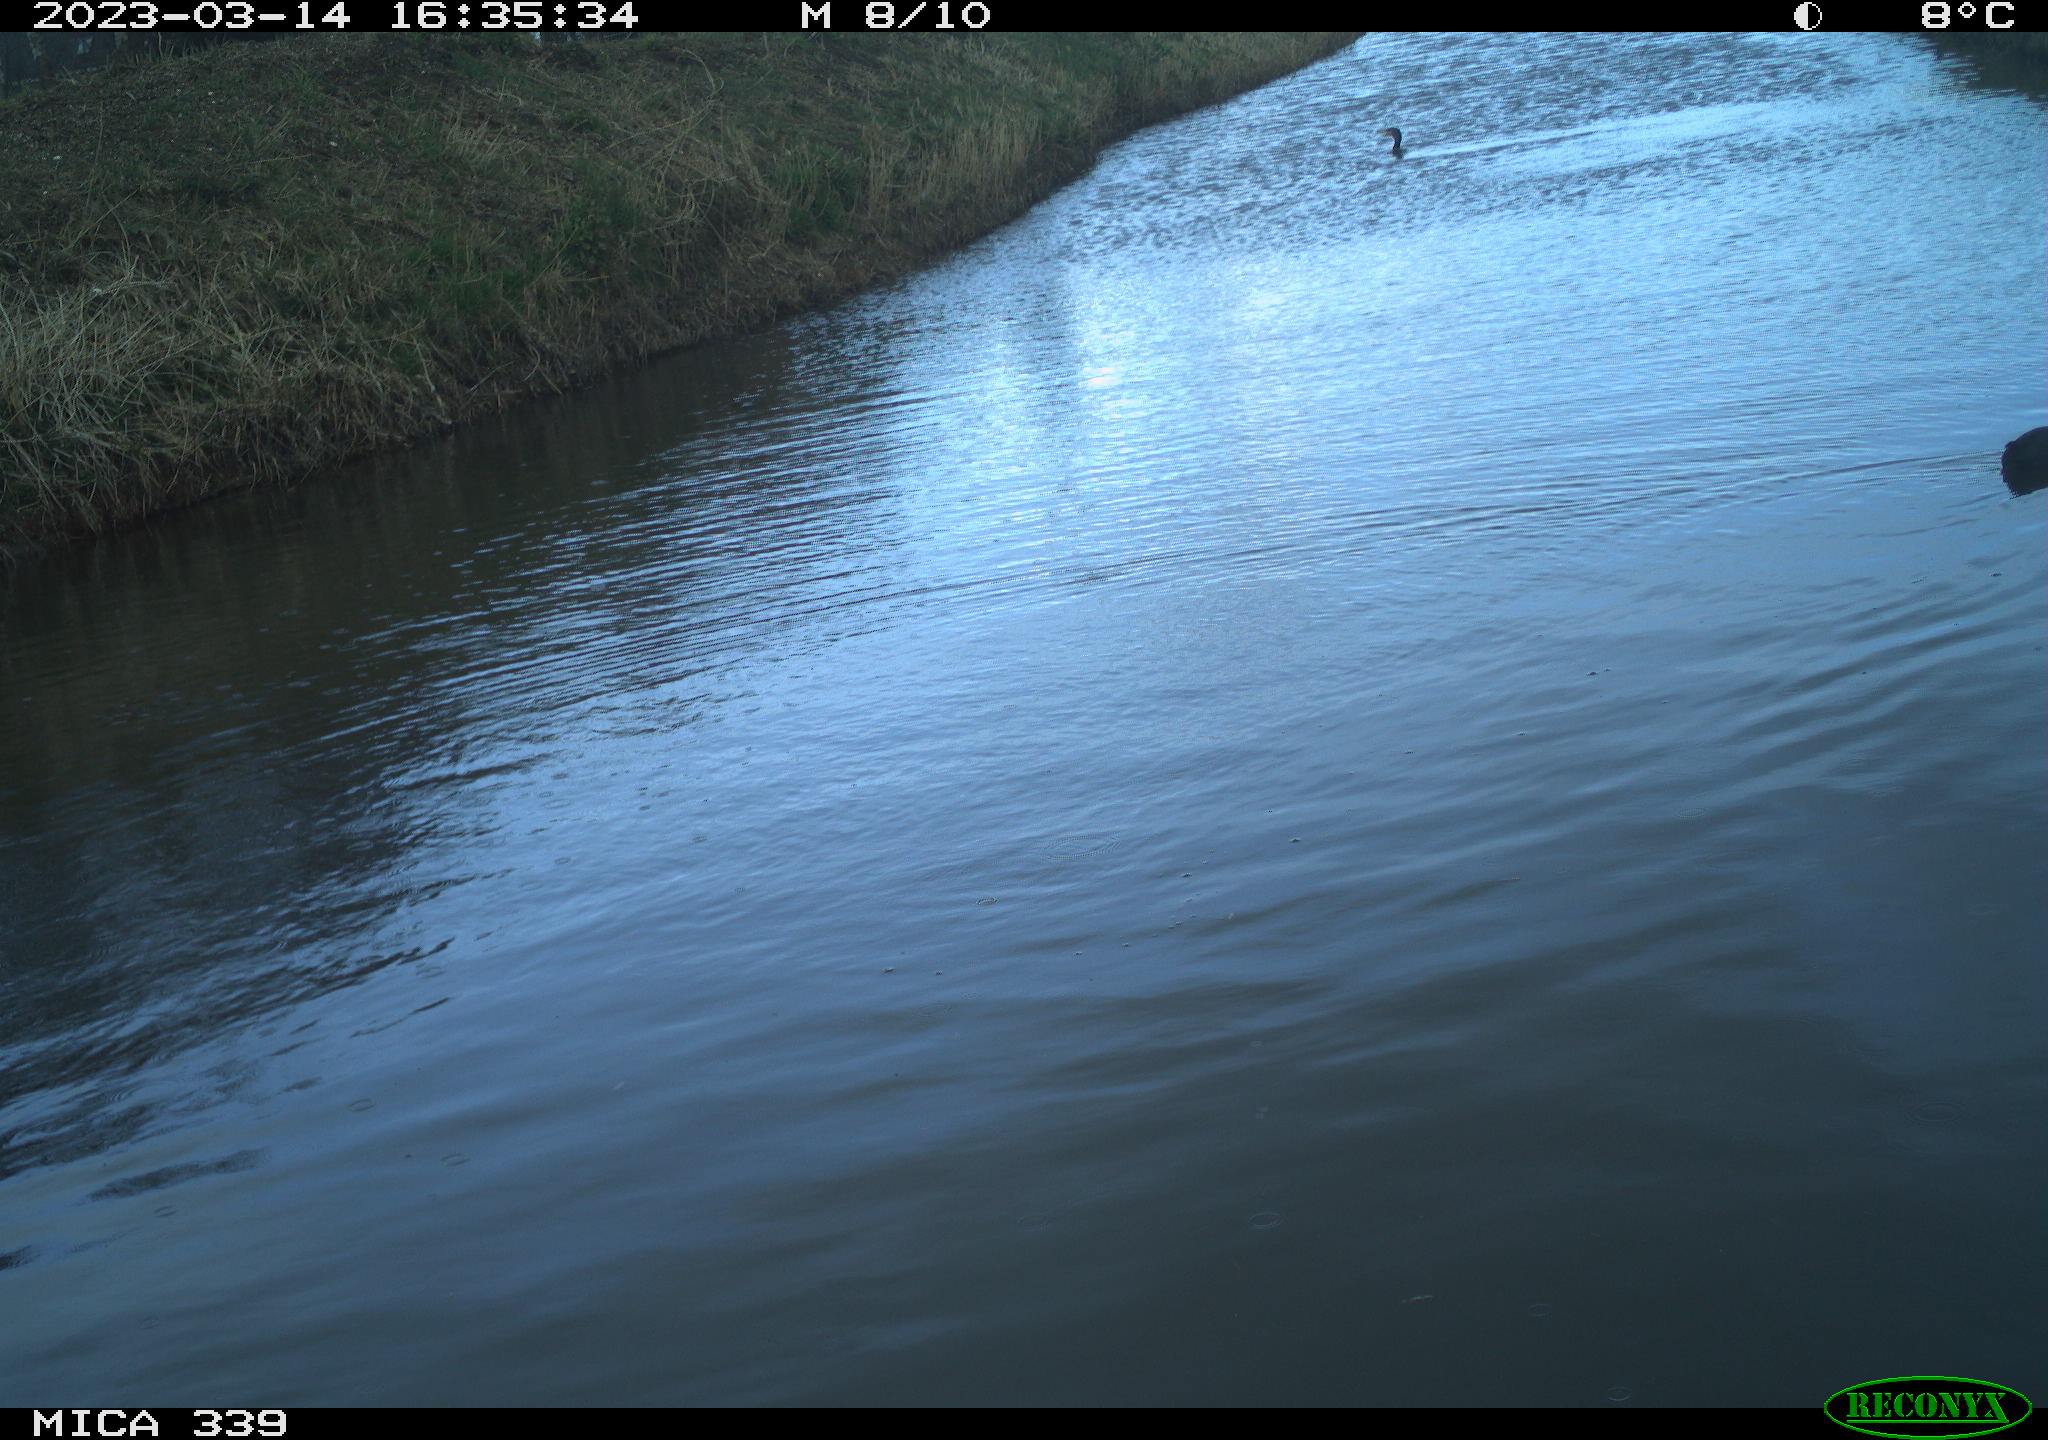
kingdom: Animalia
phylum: Chordata
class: Aves
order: Gruiformes
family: Rallidae
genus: Fulica
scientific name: Fulica atra
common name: Eurasian coot
